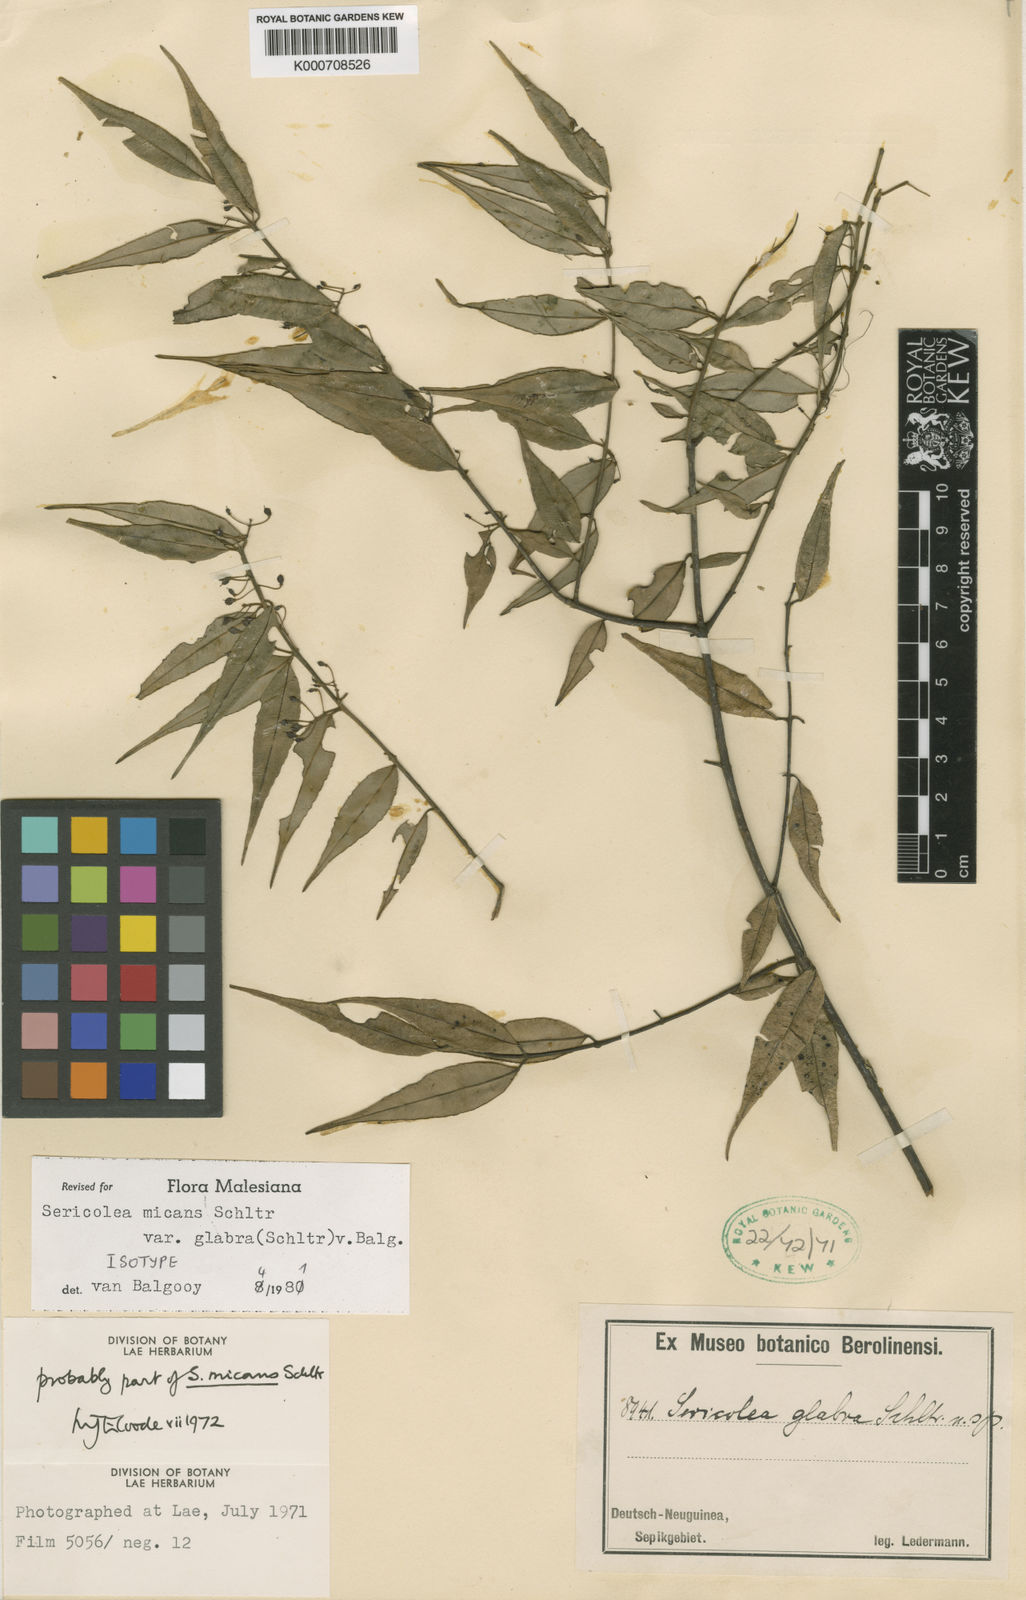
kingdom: Plantae
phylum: Tracheophyta
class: Magnoliopsida
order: Oxalidales
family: Elaeocarpaceae
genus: Sericolea
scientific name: Sericolea micans
